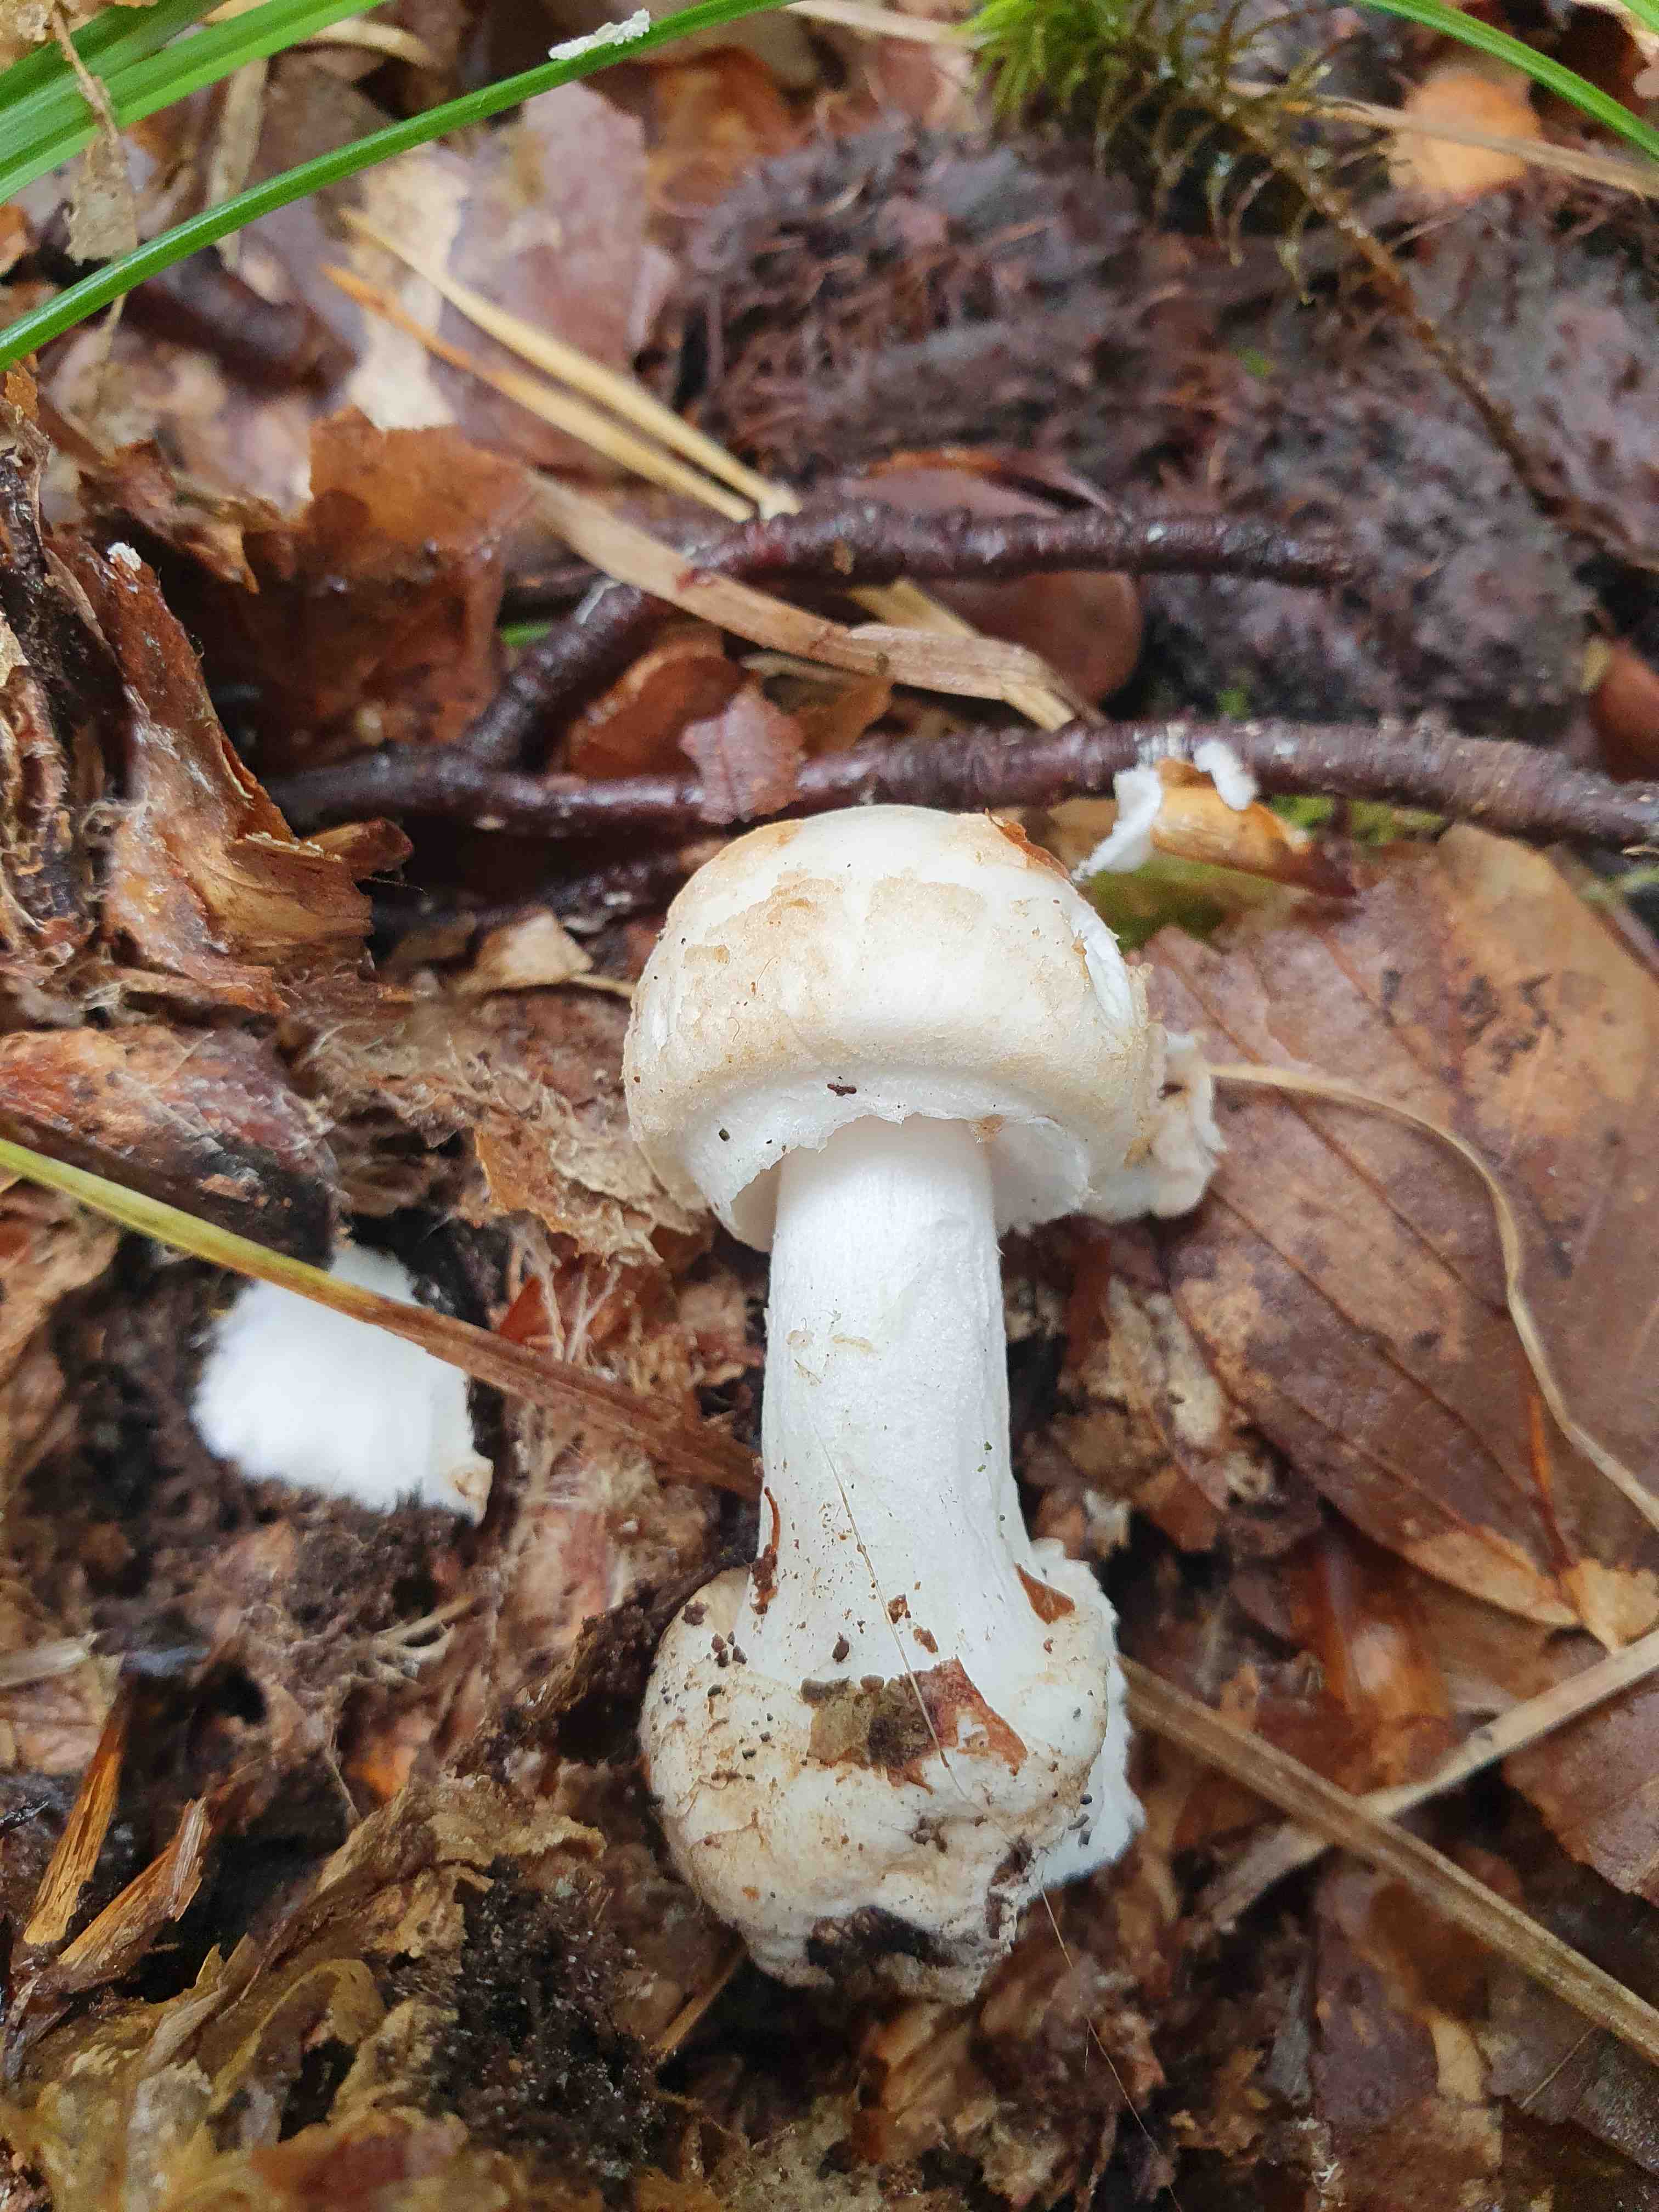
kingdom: Fungi
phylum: Basidiomycota
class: Agaricomycetes
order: Agaricales
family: Amanitaceae
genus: Amanita
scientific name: Amanita citrina
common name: kugleknoldet fluesvamp
